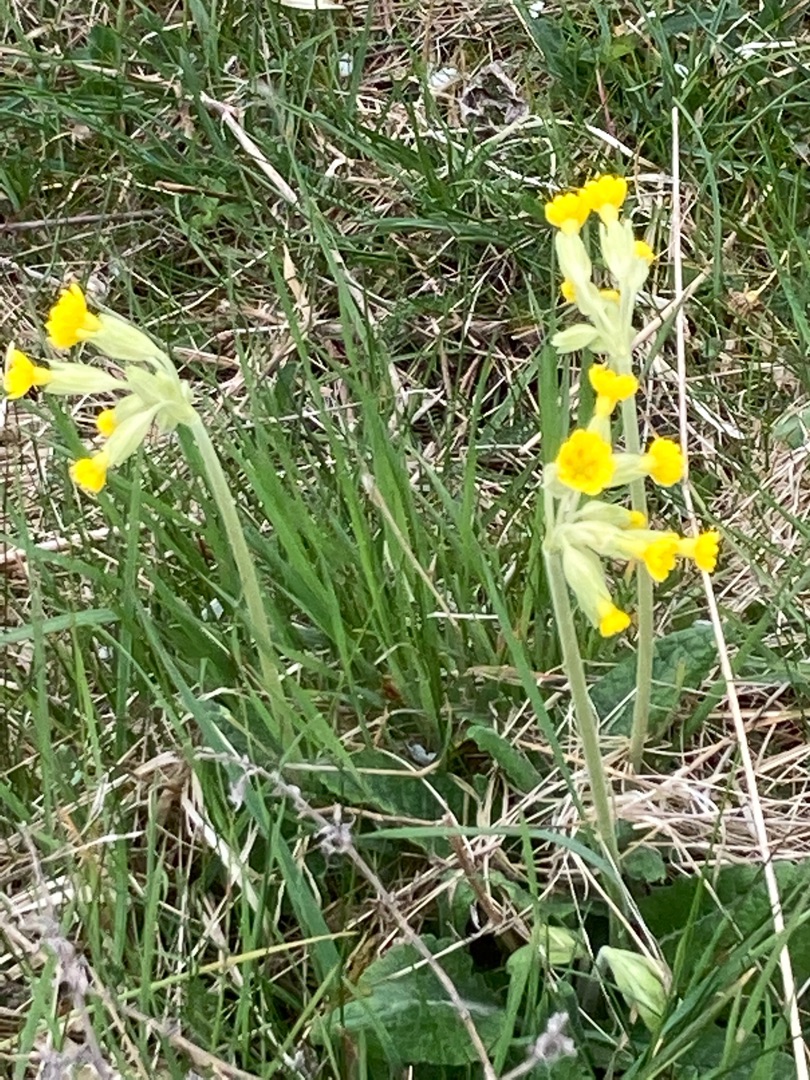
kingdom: Plantae
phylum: Tracheophyta
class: Magnoliopsida
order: Ericales
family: Primulaceae
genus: Primula
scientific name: Primula veris
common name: Hulkravet kodriver
